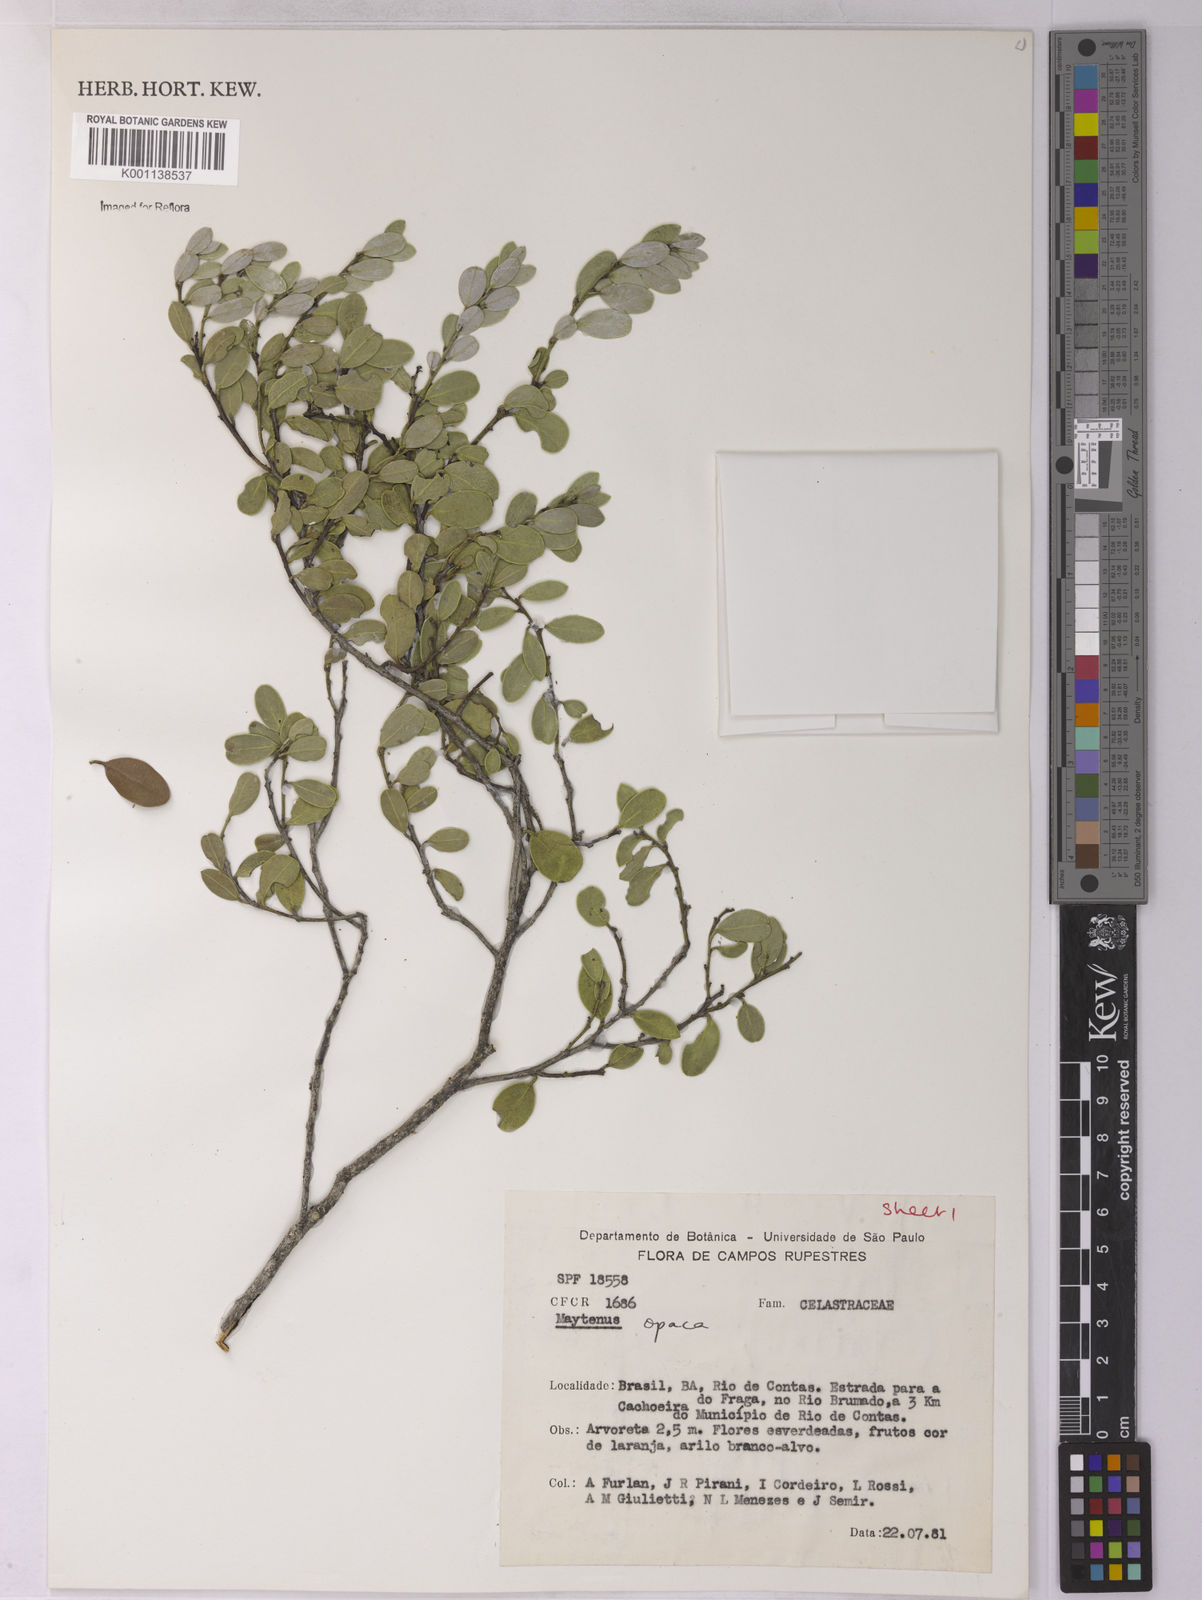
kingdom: Plantae
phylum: Tracheophyta
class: Magnoliopsida
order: Celastrales
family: Celastraceae
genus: Monteverdia
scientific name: Monteverdia opaca
